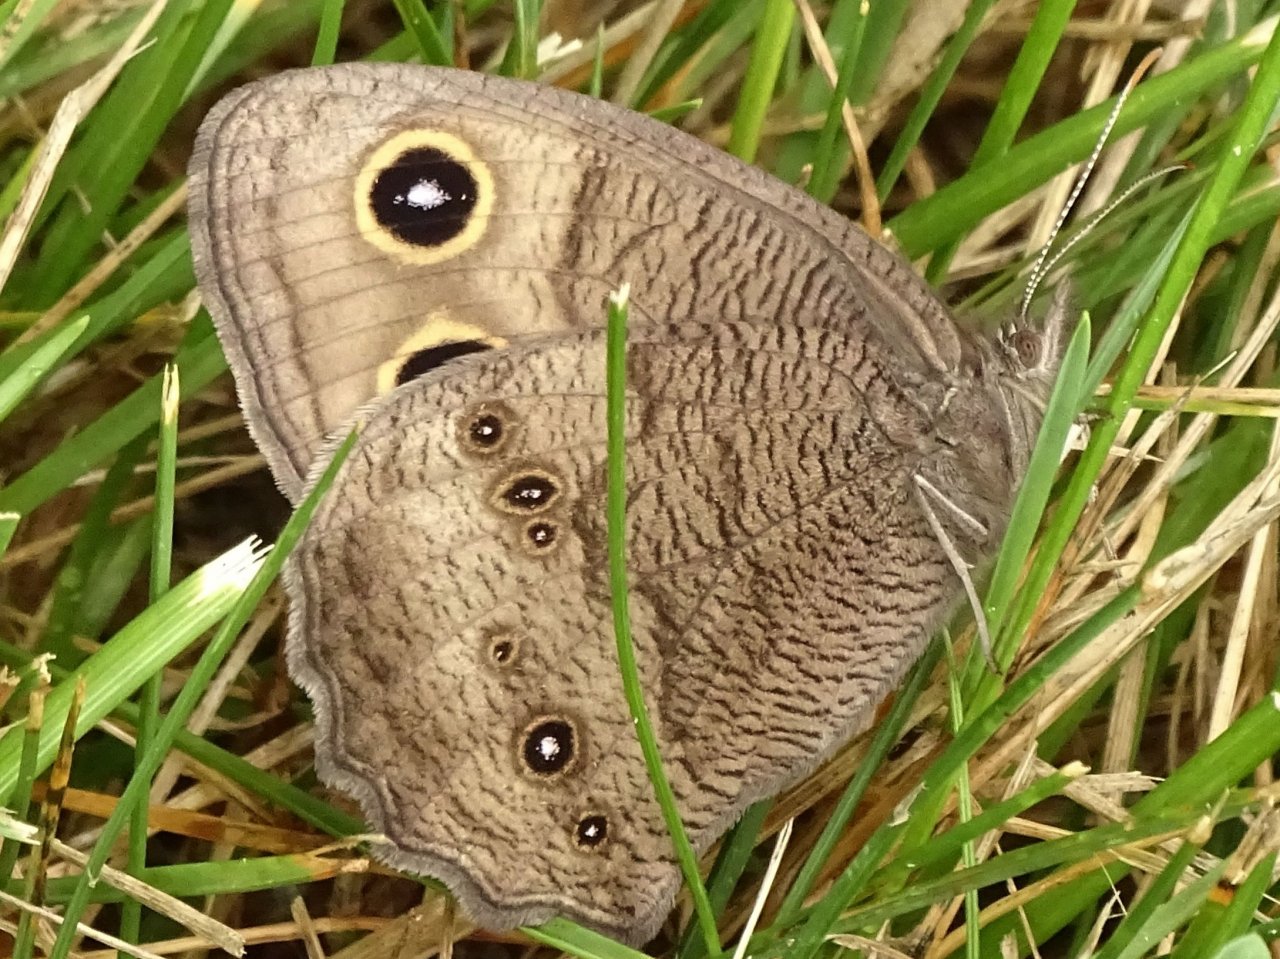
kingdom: Animalia
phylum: Arthropoda
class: Insecta
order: Lepidoptera
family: Nymphalidae
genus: Cercyonis
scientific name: Cercyonis pegala
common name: Common Wood-Nymph
